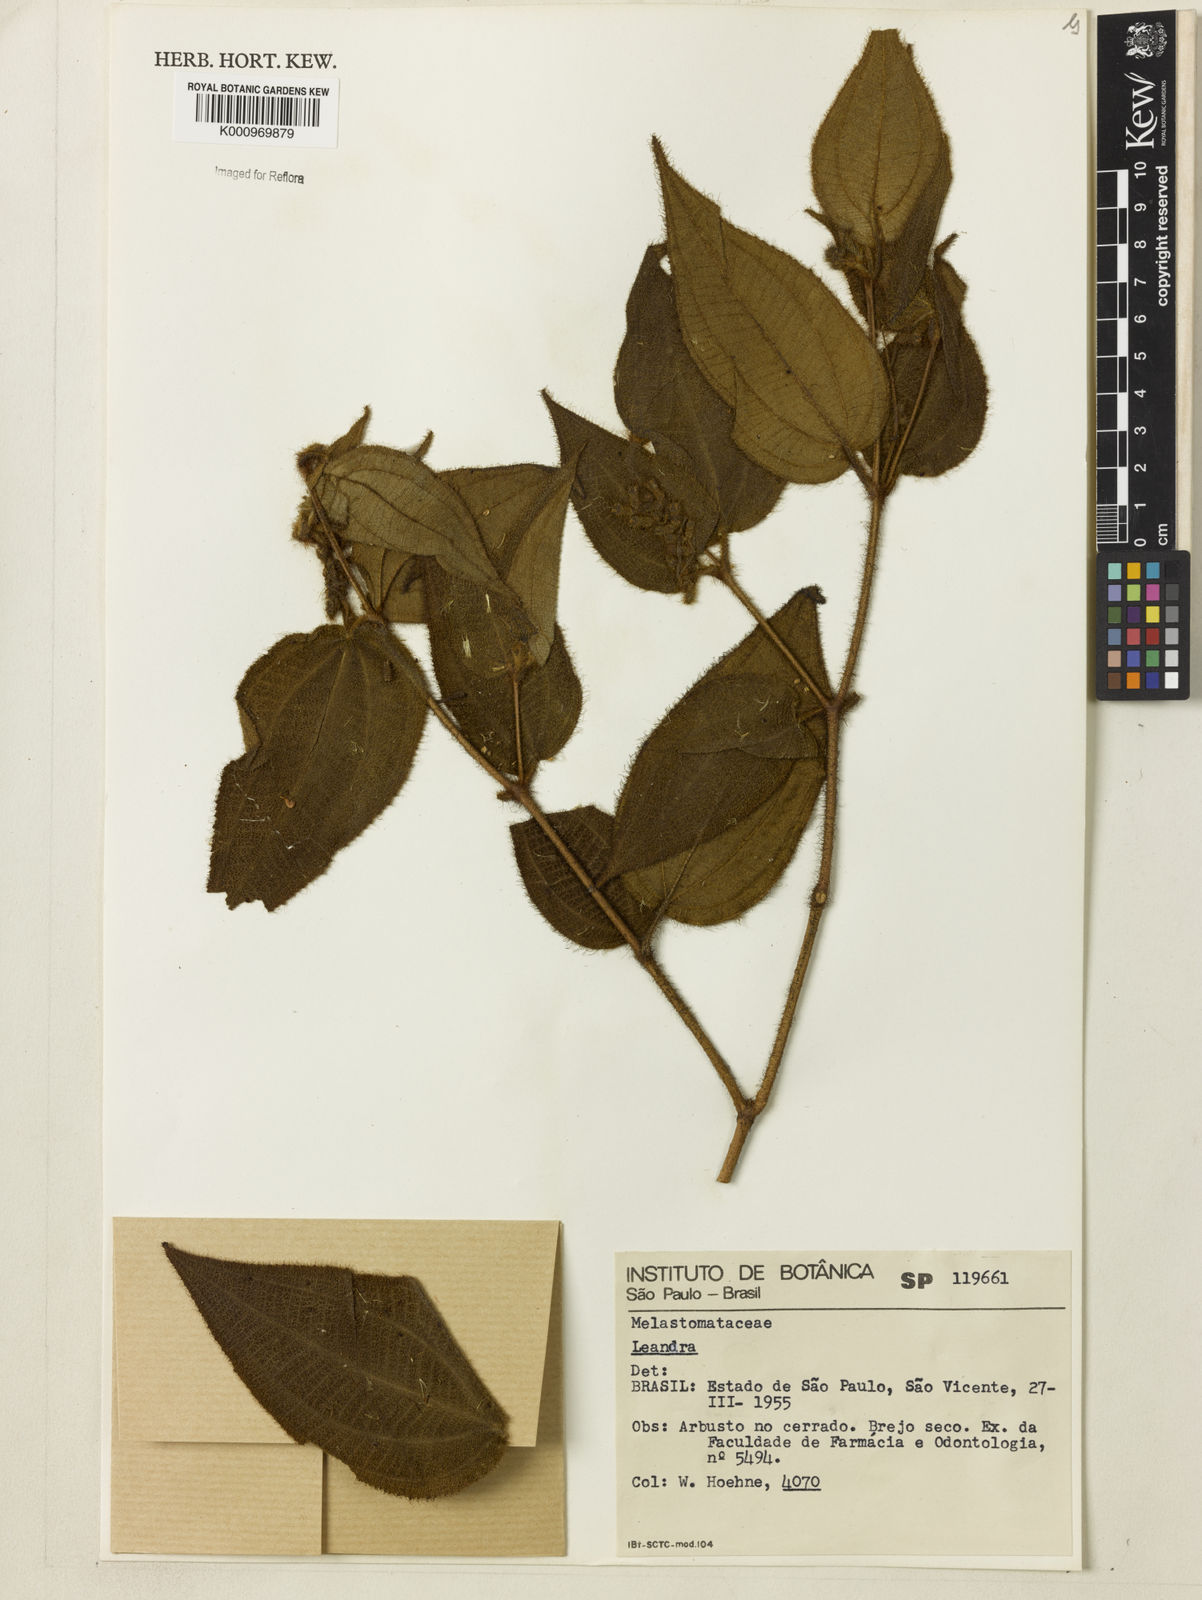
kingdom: Plantae
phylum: Tracheophyta
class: Magnoliopsida
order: Myrtales
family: Melastomataceae
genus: Miconia
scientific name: Miconia
